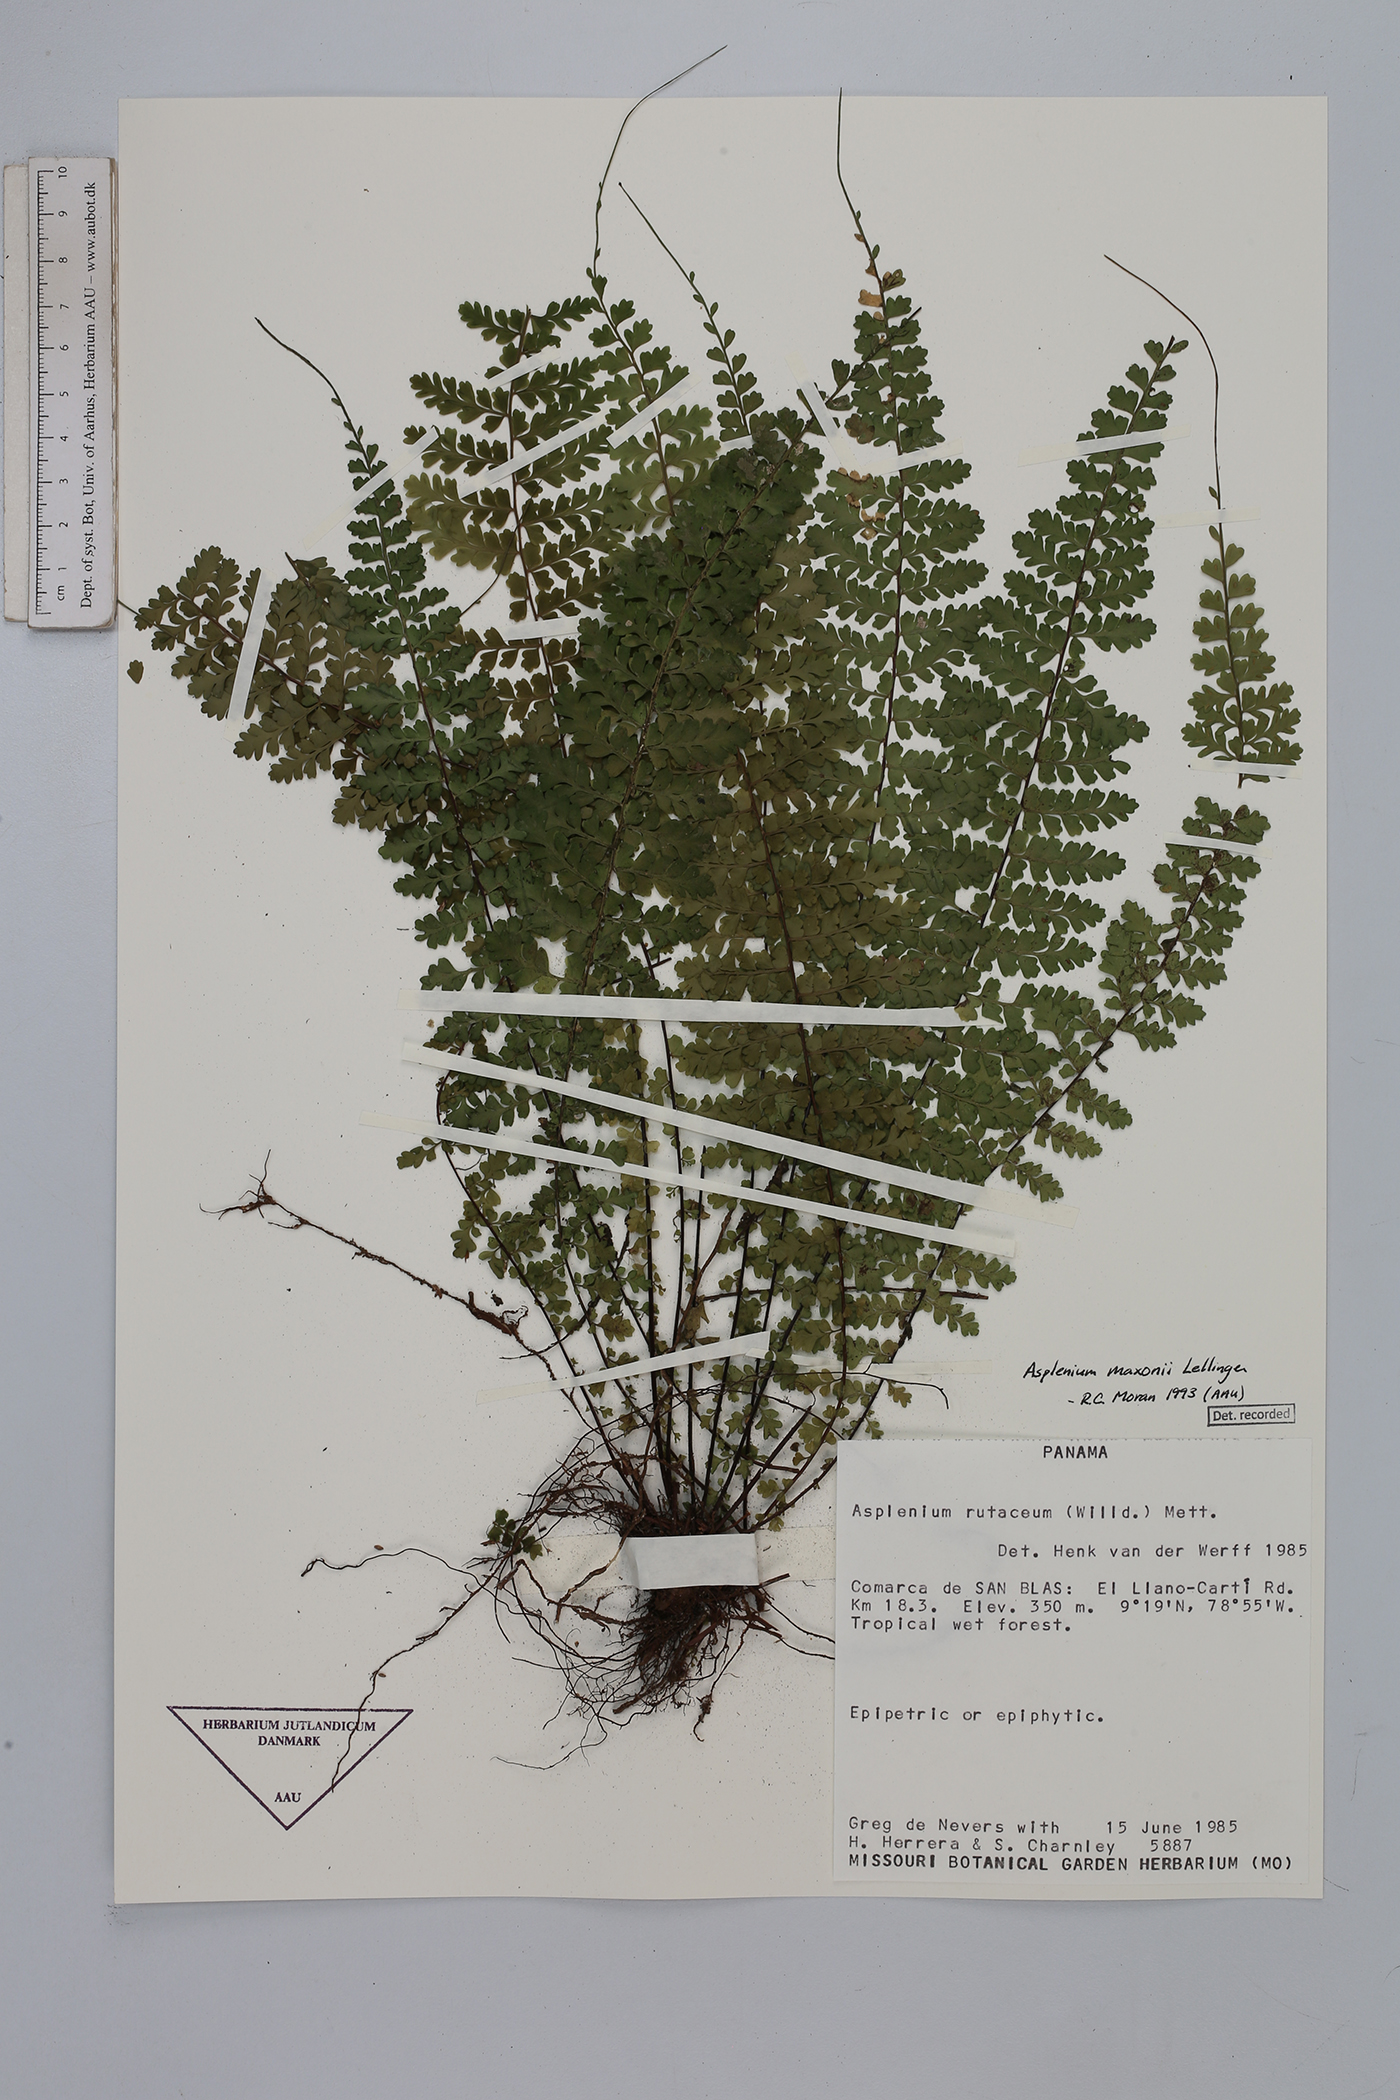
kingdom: Plantae
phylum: Tracheophyta
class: Polypodiopsida
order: Polypodiales
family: Aspleniaceae
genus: Asplenium
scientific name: Asplenium maxonii
